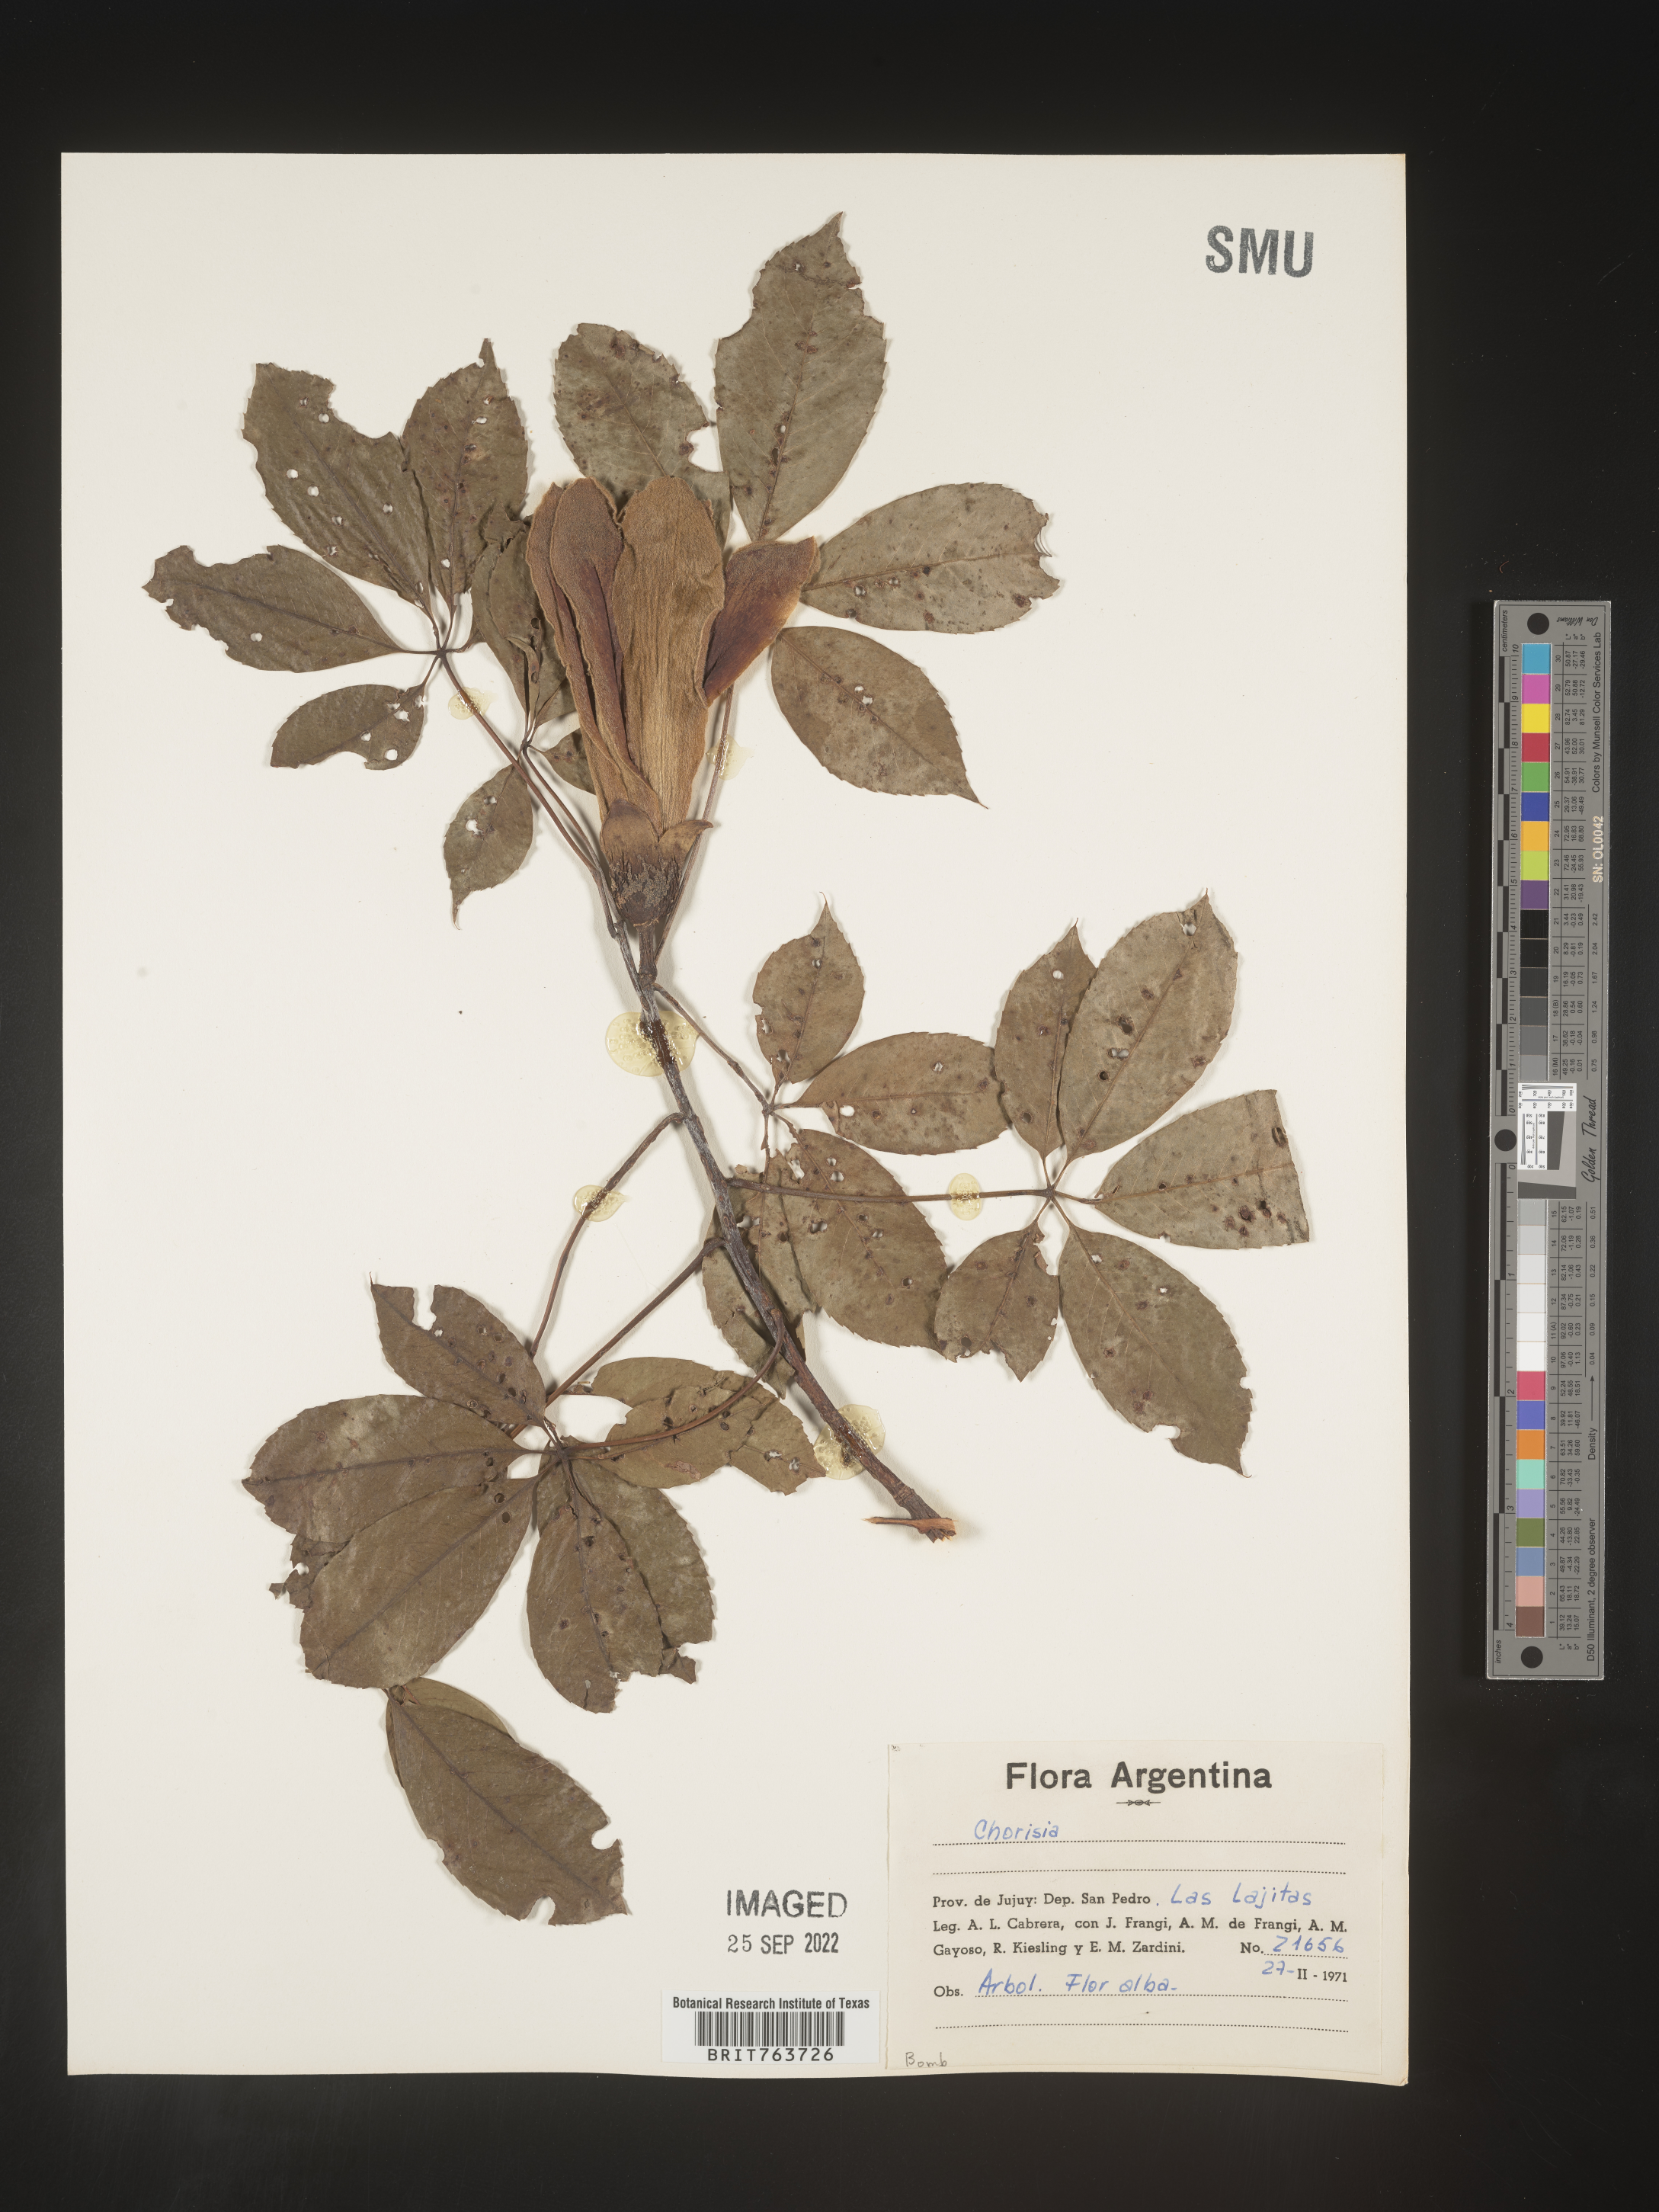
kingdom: Animalia
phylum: Arthropoda
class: Insecta
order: Blattodea
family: Ectobiidae
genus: Chorisia
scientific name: Chorisia
